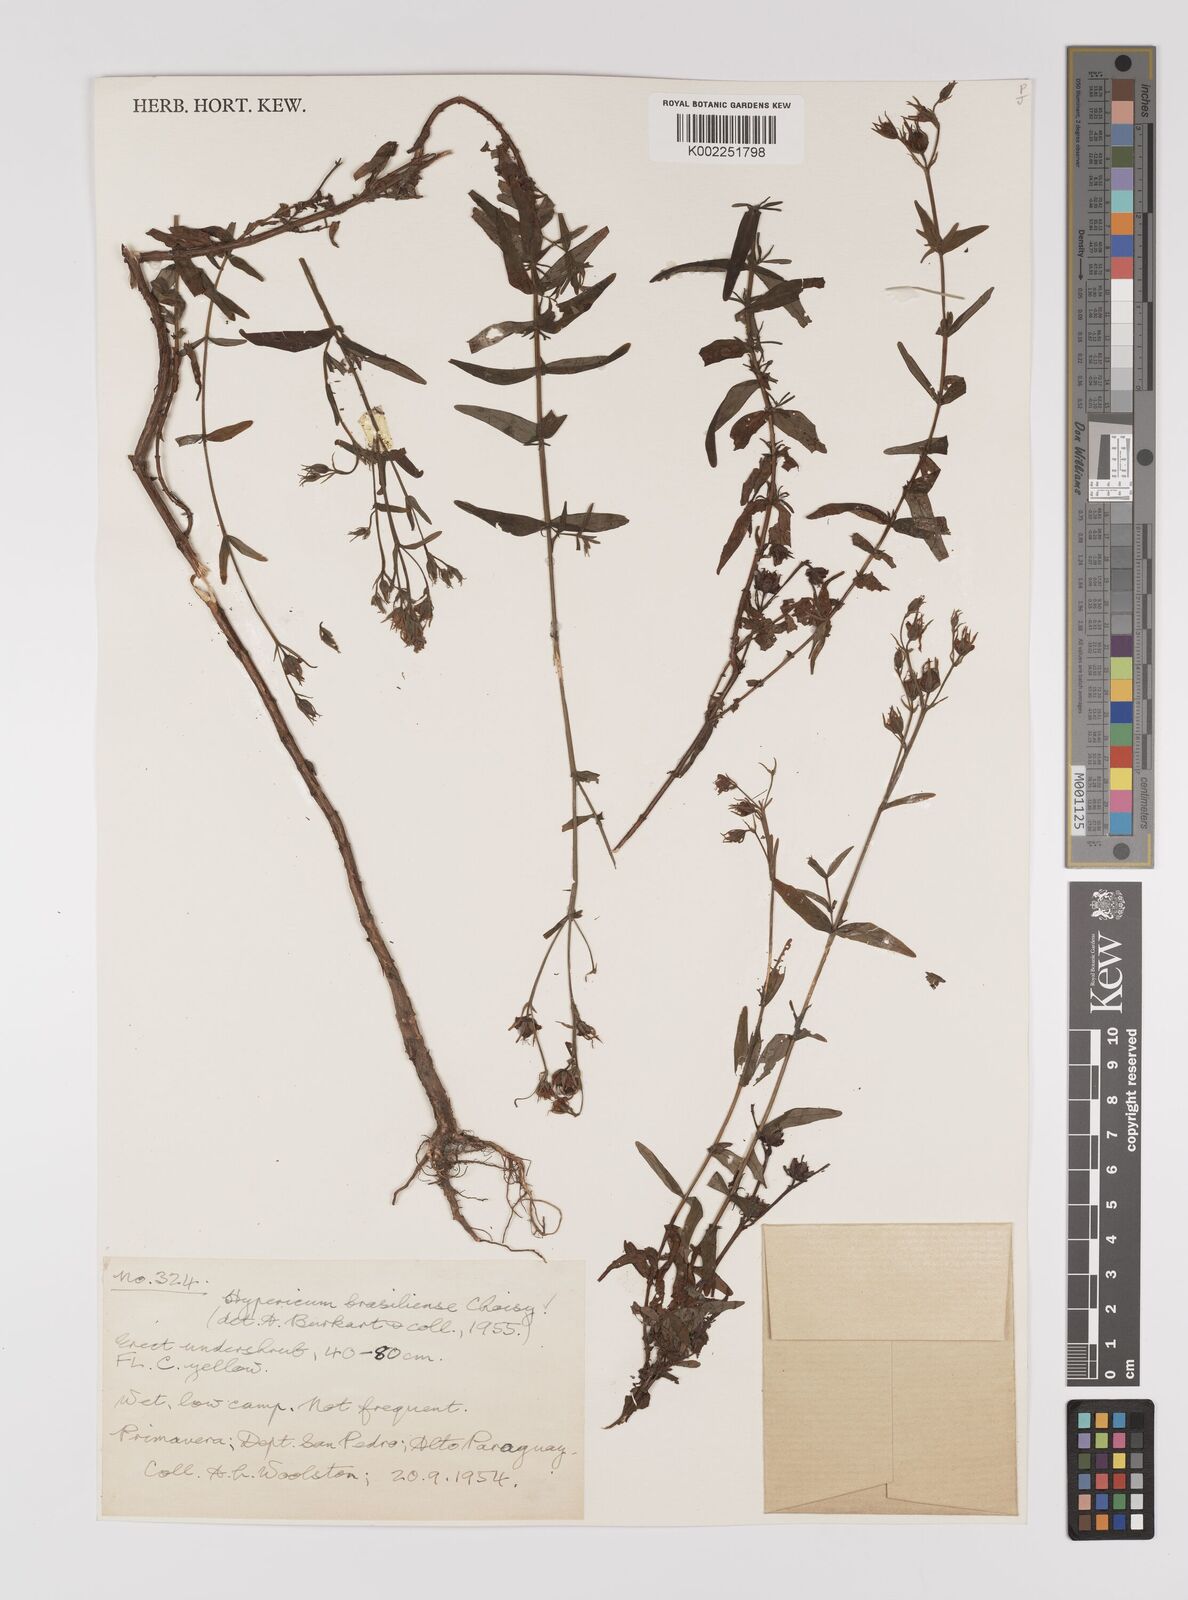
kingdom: Plantae
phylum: Tracheophyta
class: Magnoliopsida
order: Malpighiales
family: Hypericaceae
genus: Hypericum
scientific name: Hypericum
